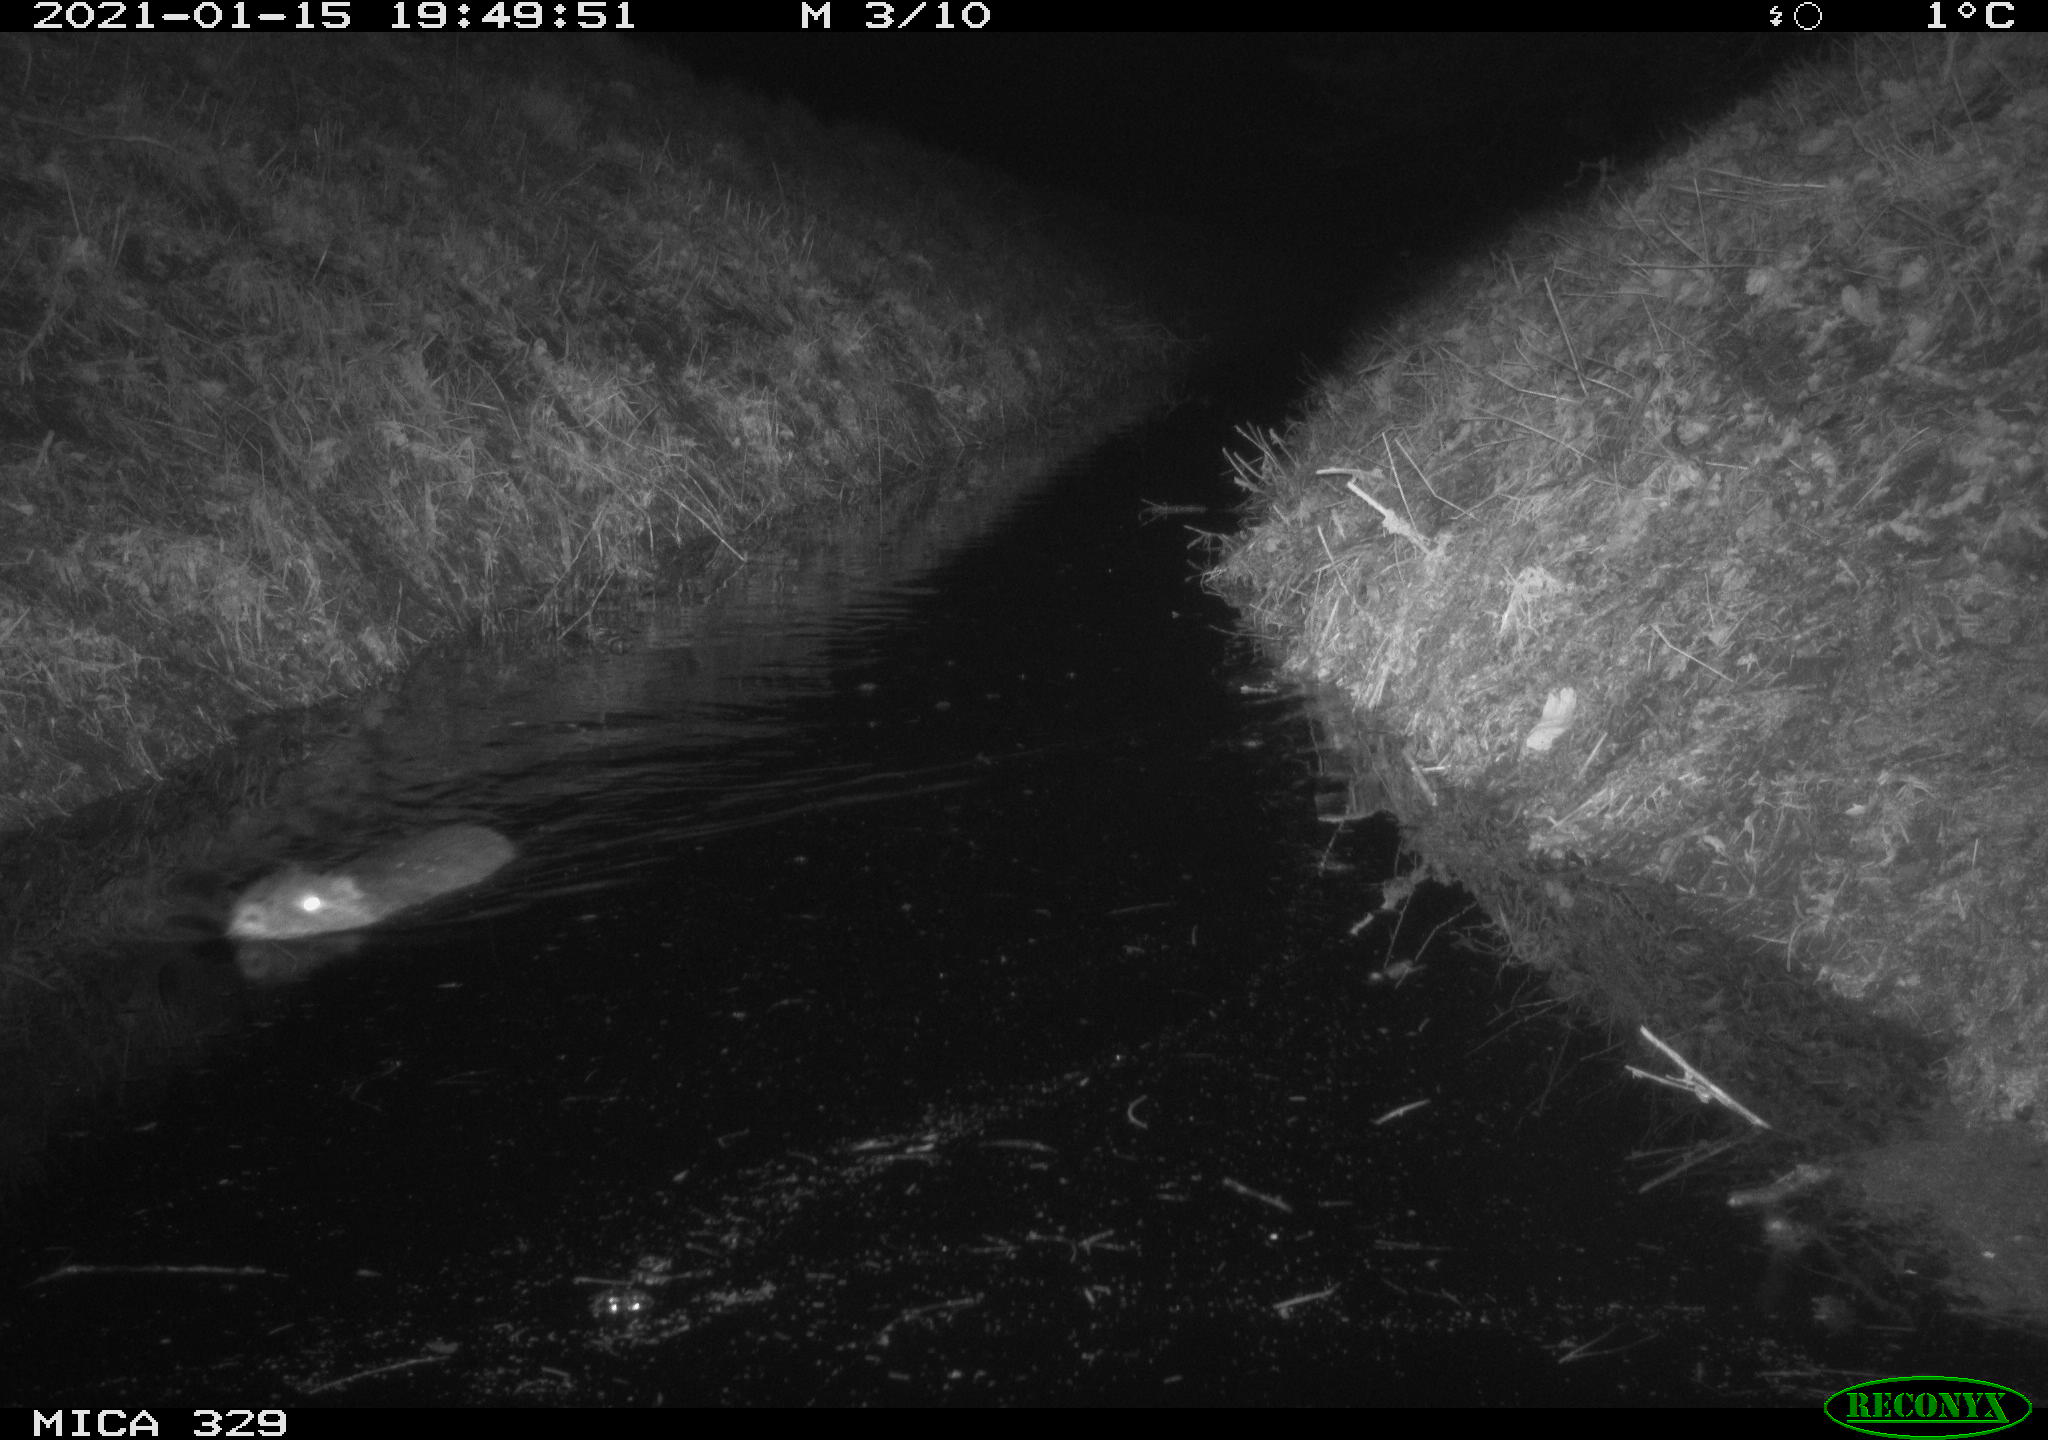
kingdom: Animalia
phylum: Chordata
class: Mammalia
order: Rodentia
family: Myocastoridae
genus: Myocastor
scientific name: Myocastor coypus
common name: Coypu
